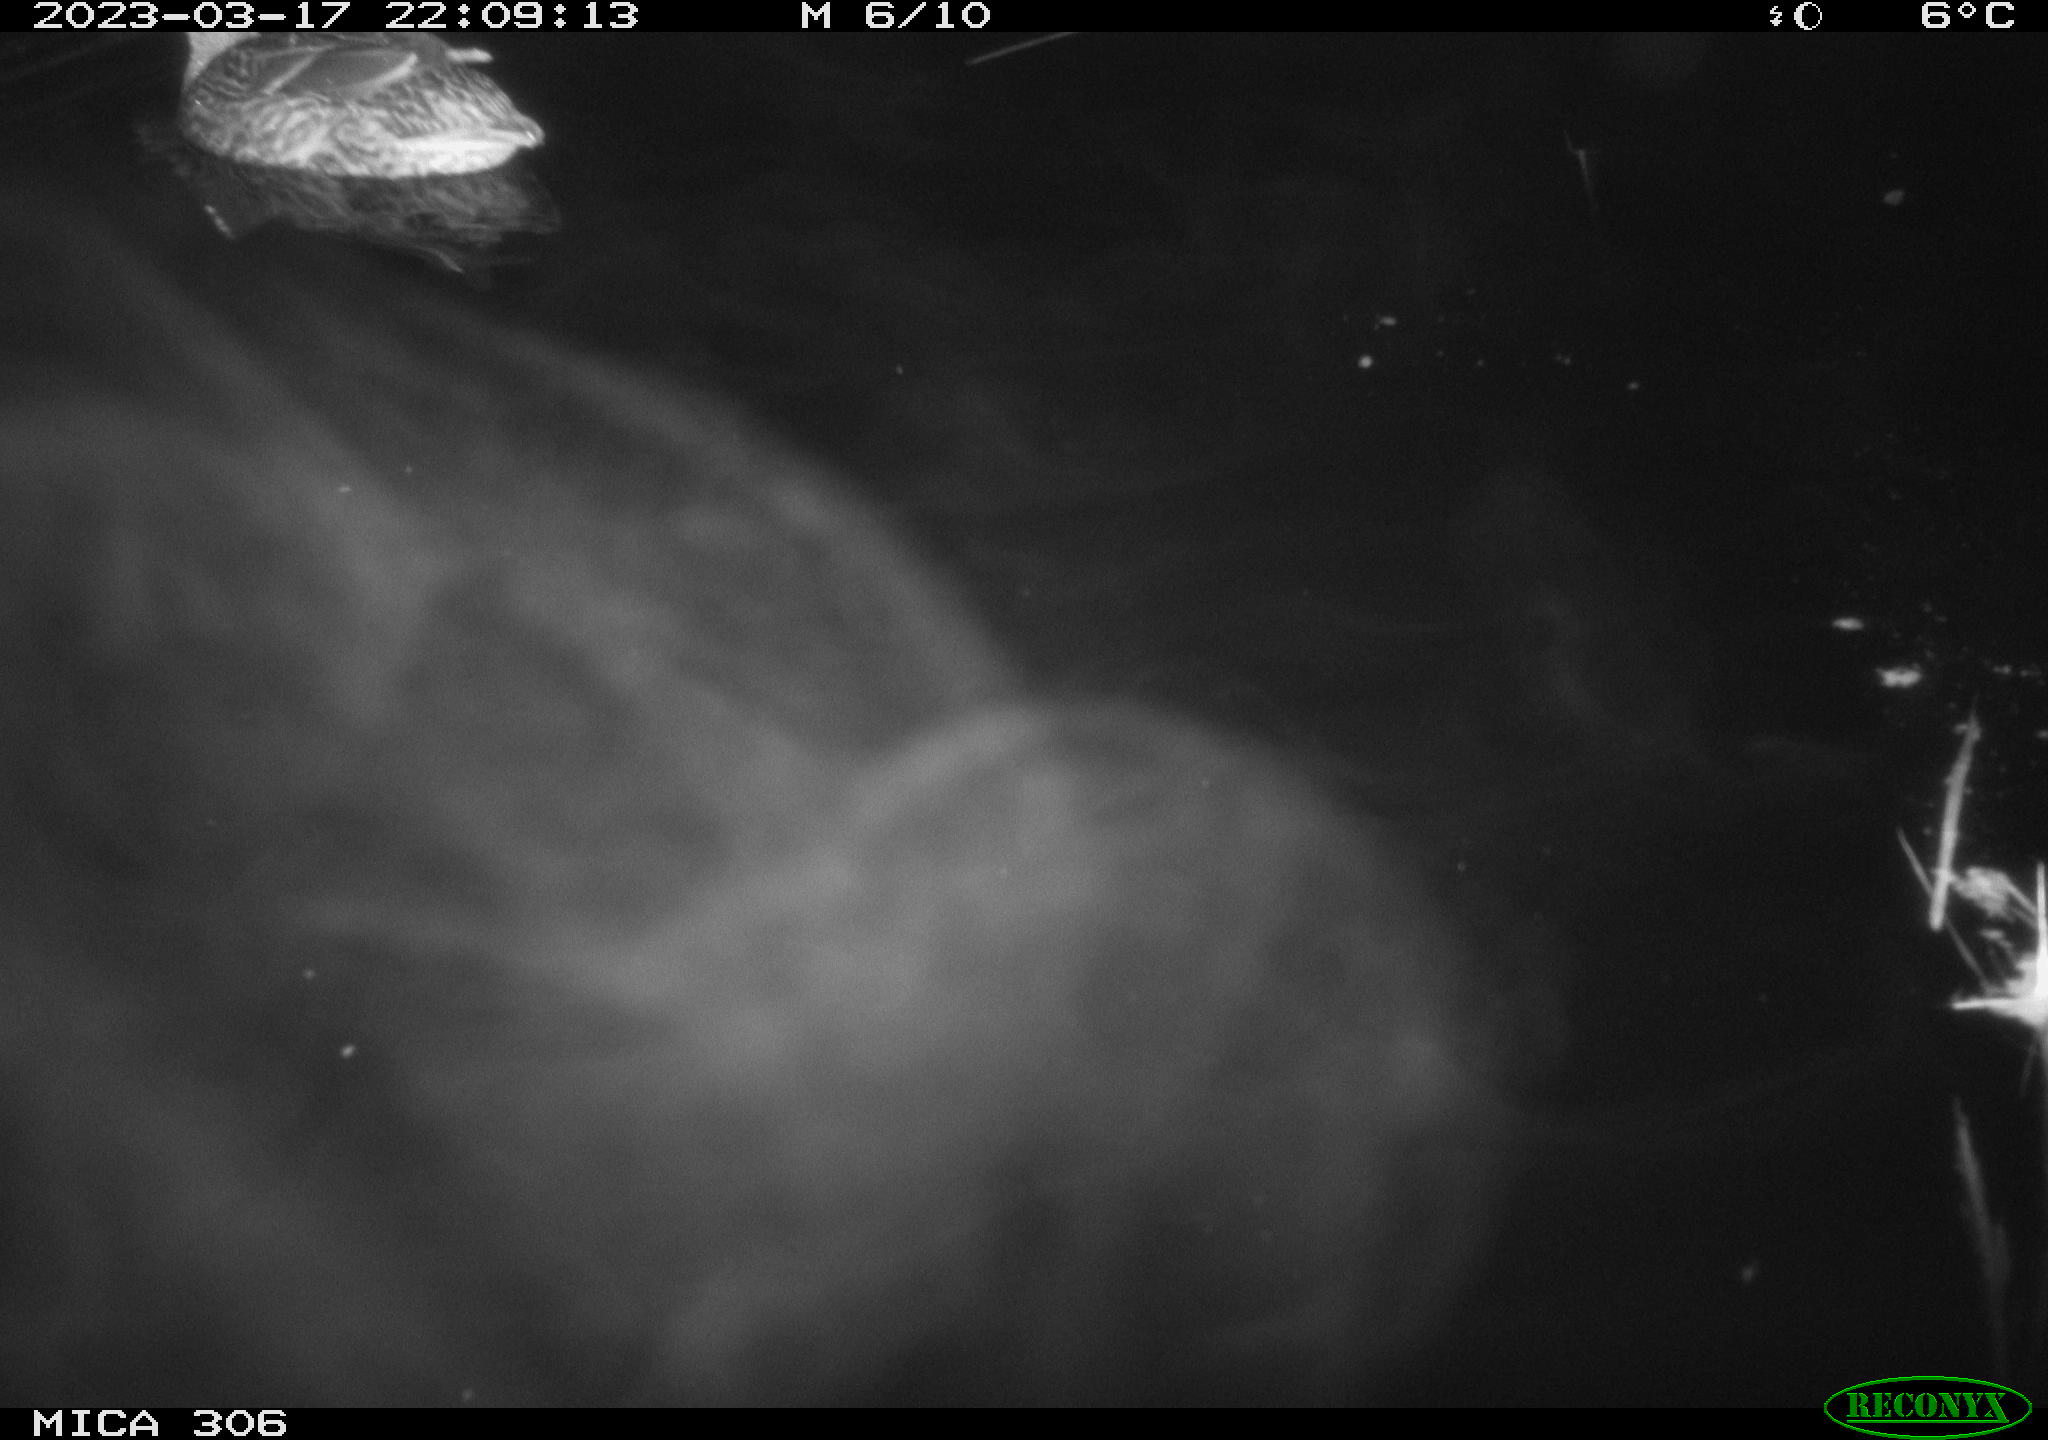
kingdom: Animalia
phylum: Chordata
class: Aves
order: Anseriformes
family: Anatidae
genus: Anas
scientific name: Anas
